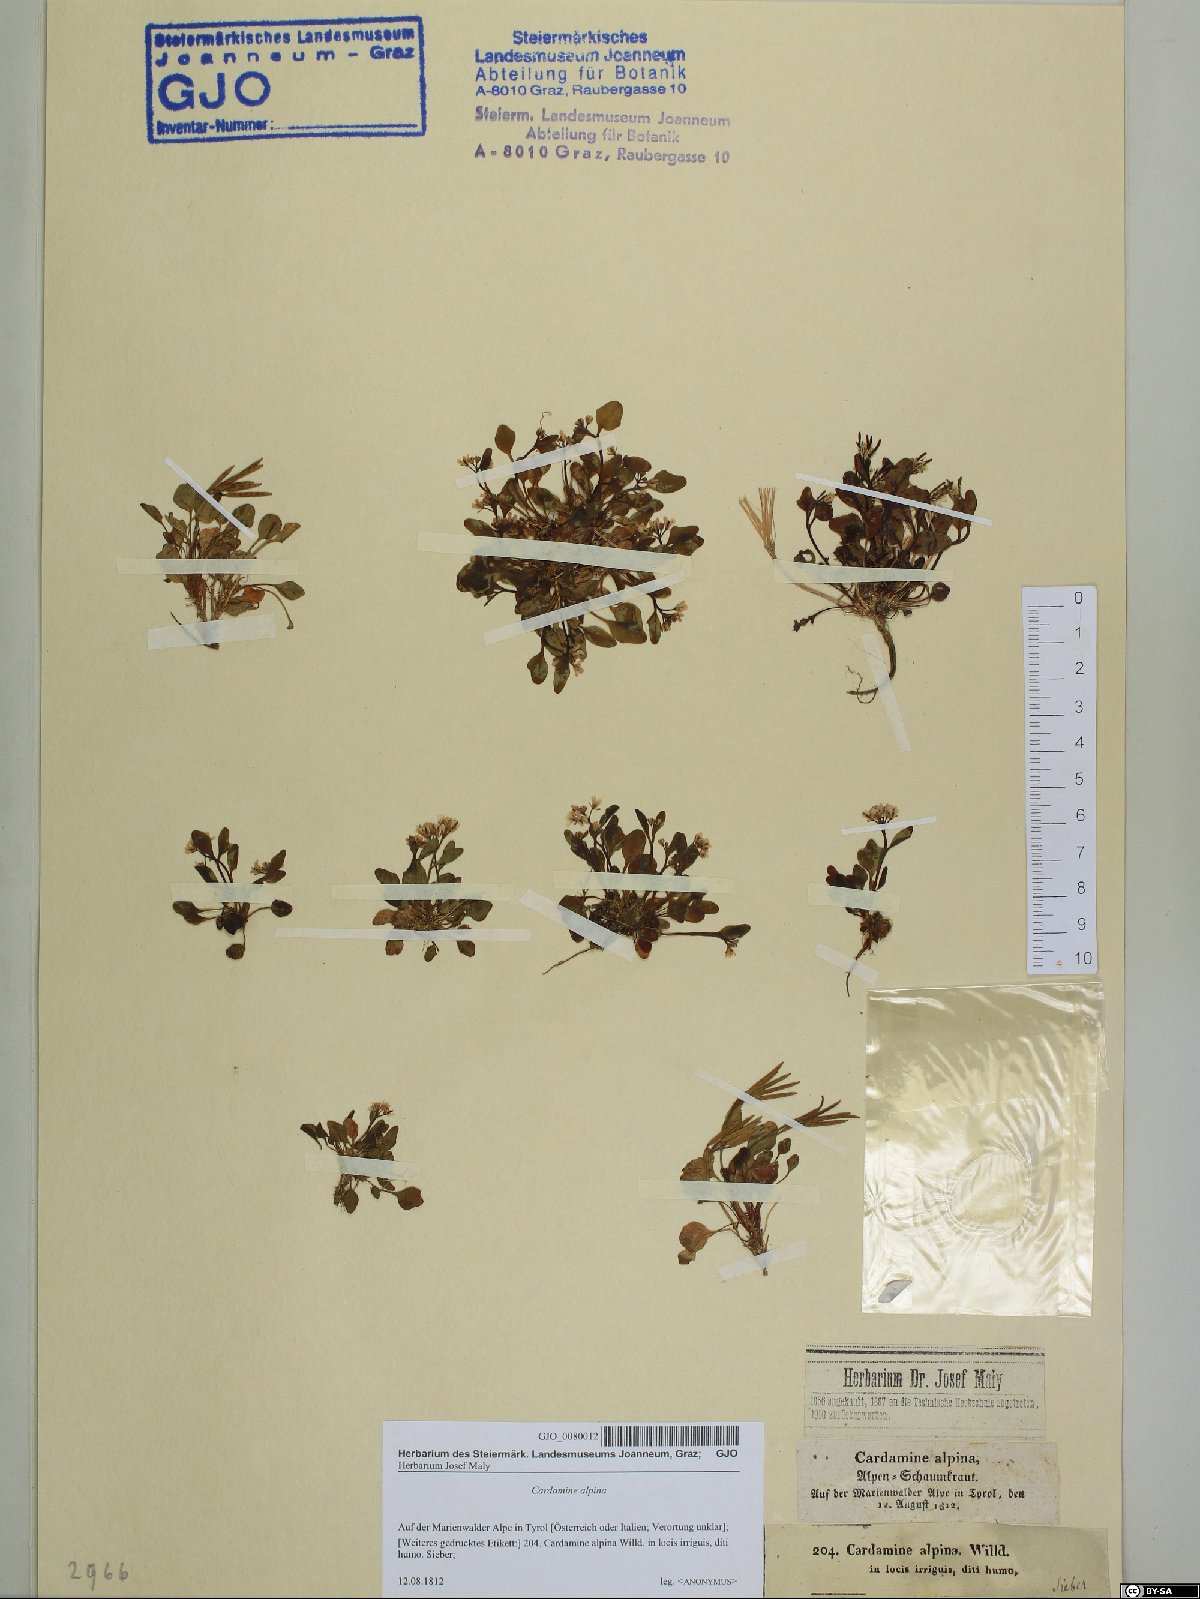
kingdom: Plantae
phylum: Tracheophyta
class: Magnoliopsida
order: Brassicales
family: Brassicaceae
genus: Cardamine
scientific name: Cardamine bellidifolia
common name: Alpine bittercress
